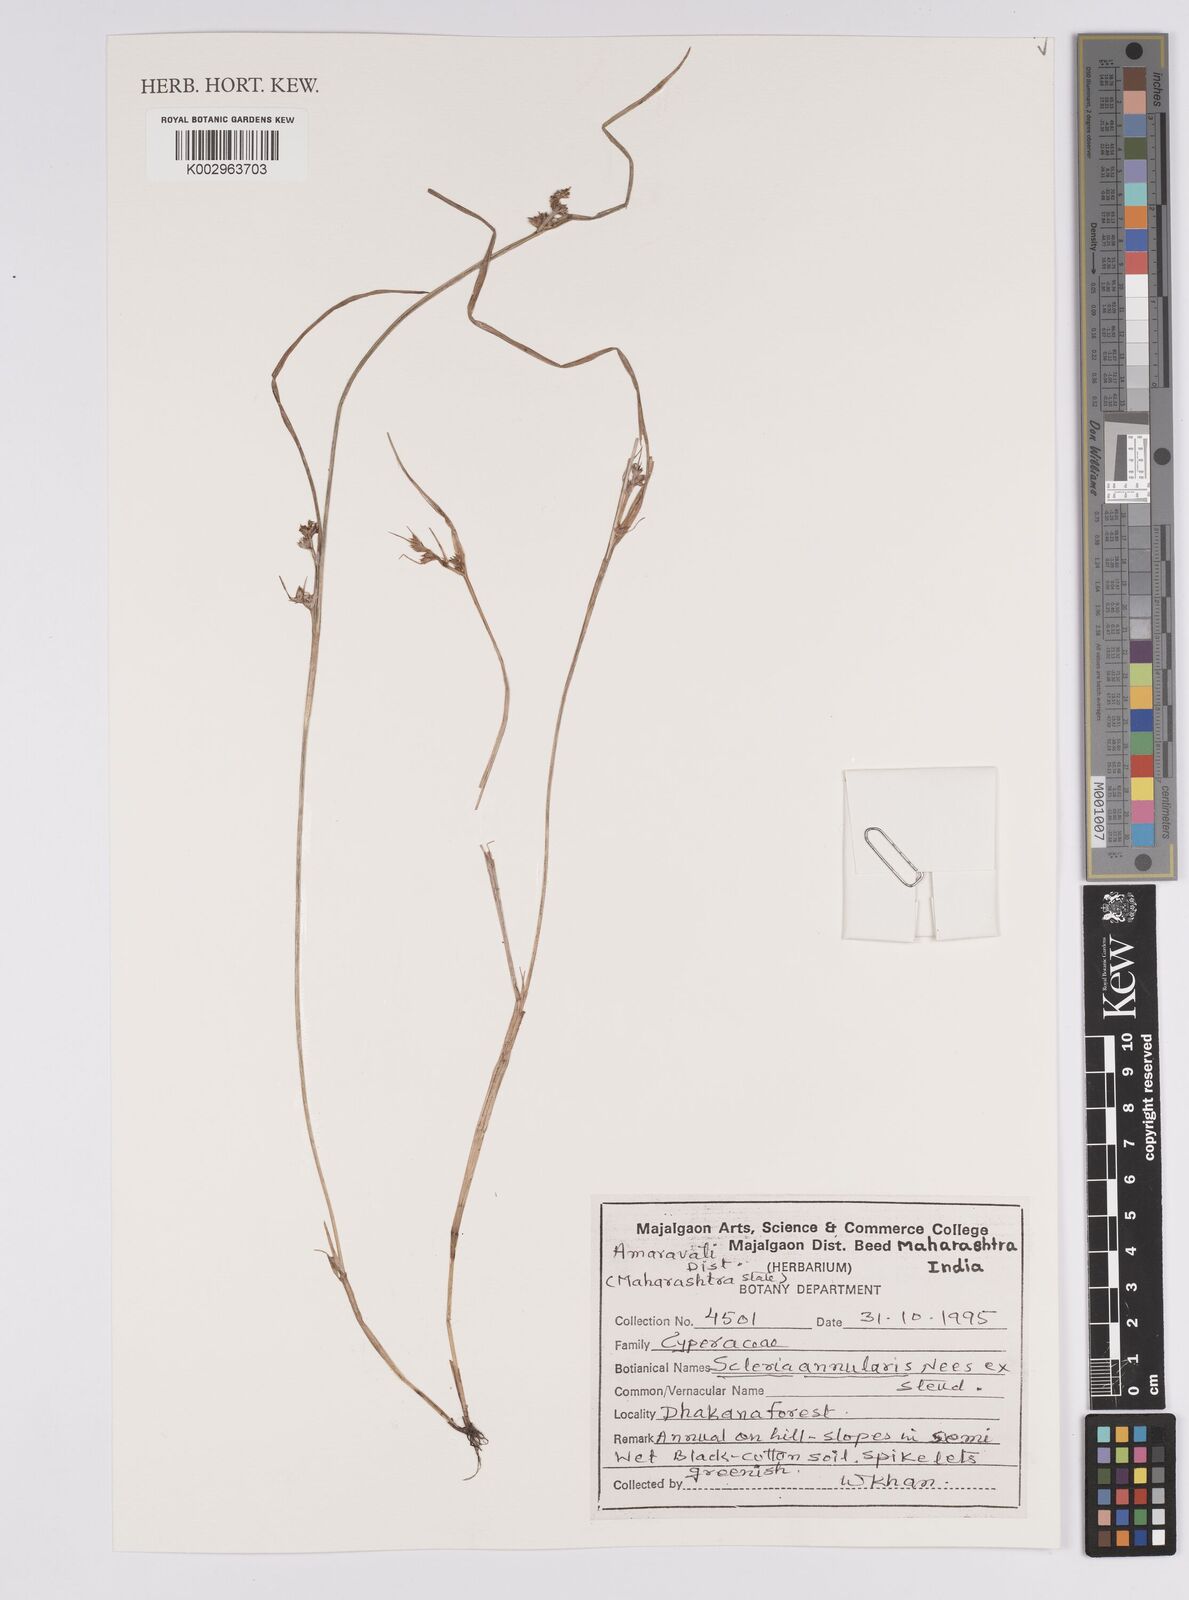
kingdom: Plantae
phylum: Tracheophyta
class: Liliopsida
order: Poales
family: Cyperaceae
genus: Scleria
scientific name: Scleria annularis
